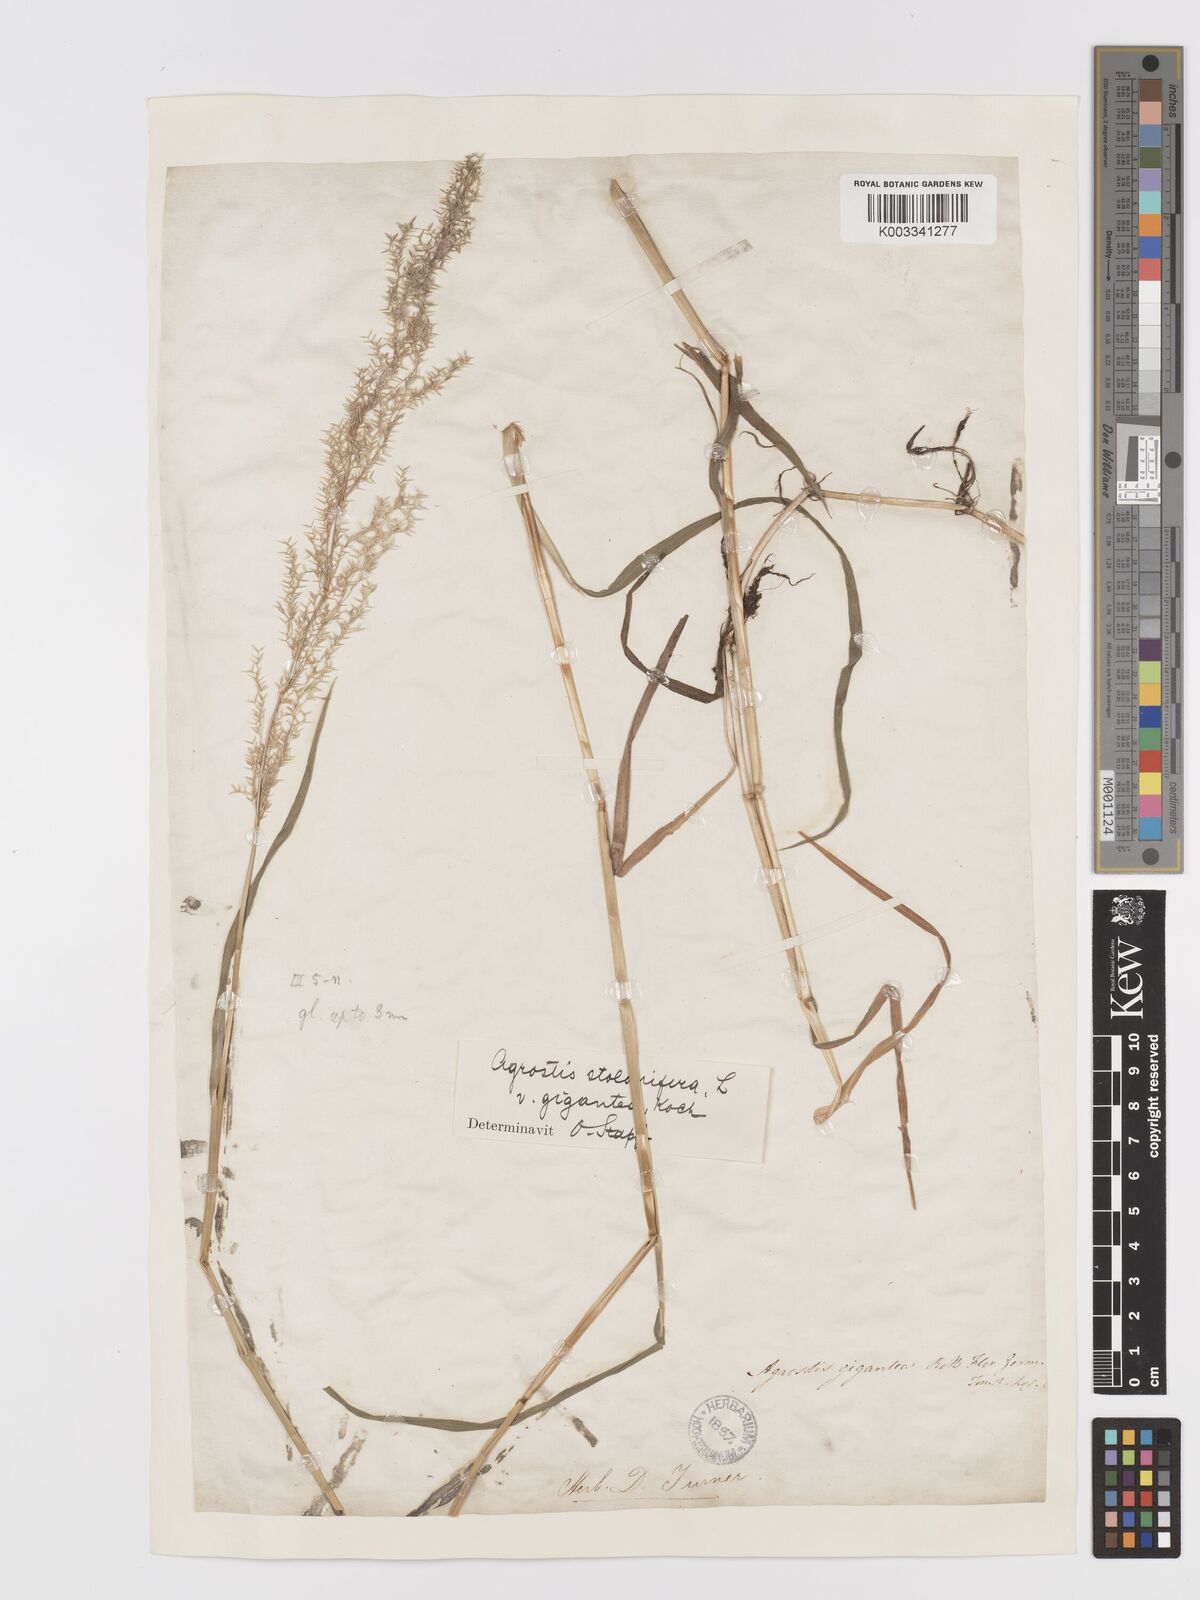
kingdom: Plantae
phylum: Tracheophyta
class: Liliopsida
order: Poales
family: Poaceae
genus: Agrostis
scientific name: Agrostis gigantea
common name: Black bent
